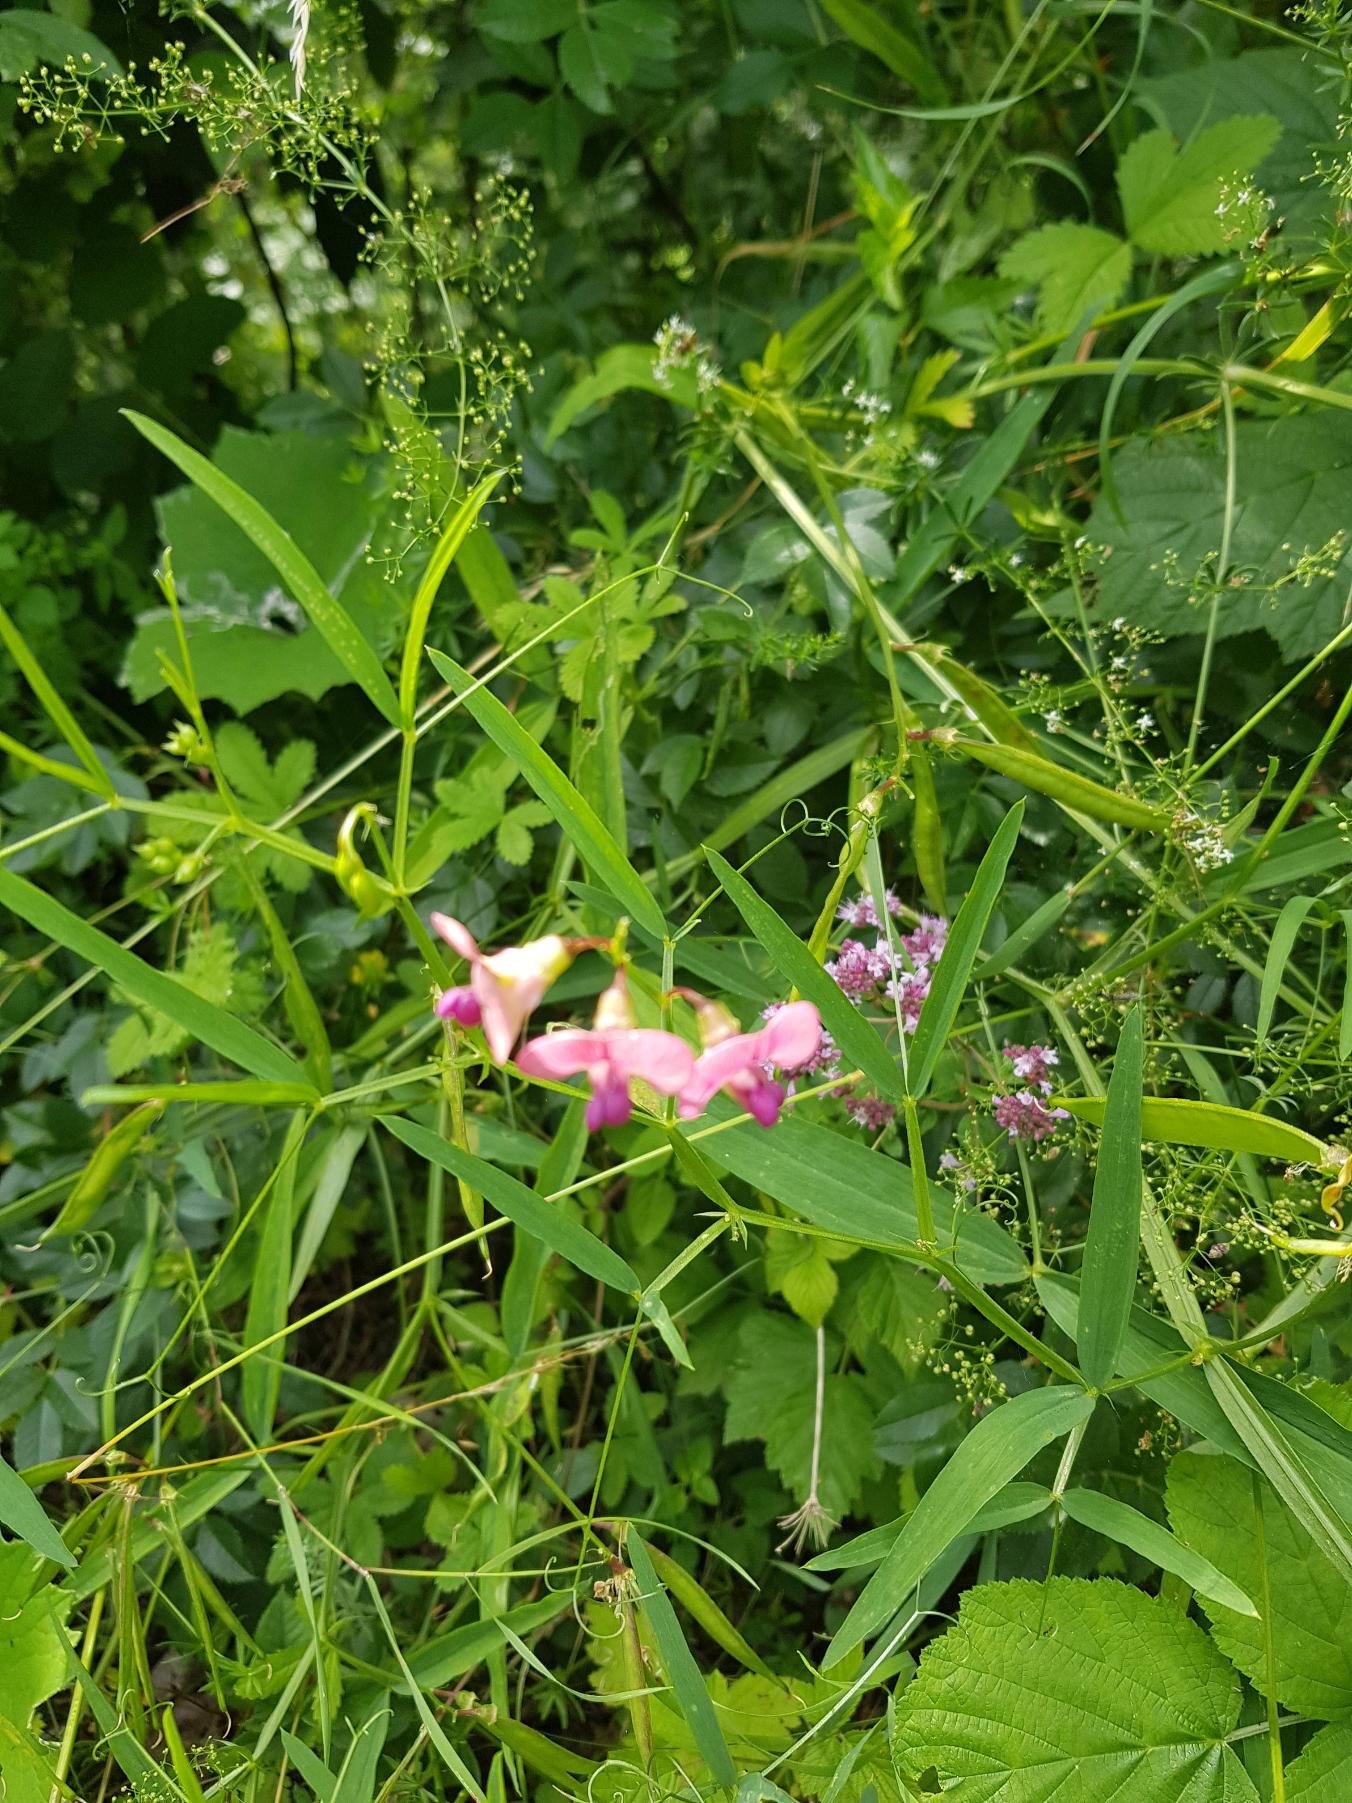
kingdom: Plantae
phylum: Tracheophyta
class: Magnoliopsida
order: Fabales
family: Fabaceae
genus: Lathyrus
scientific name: Lathyrus sylvestris
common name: Skov-fladbælg
